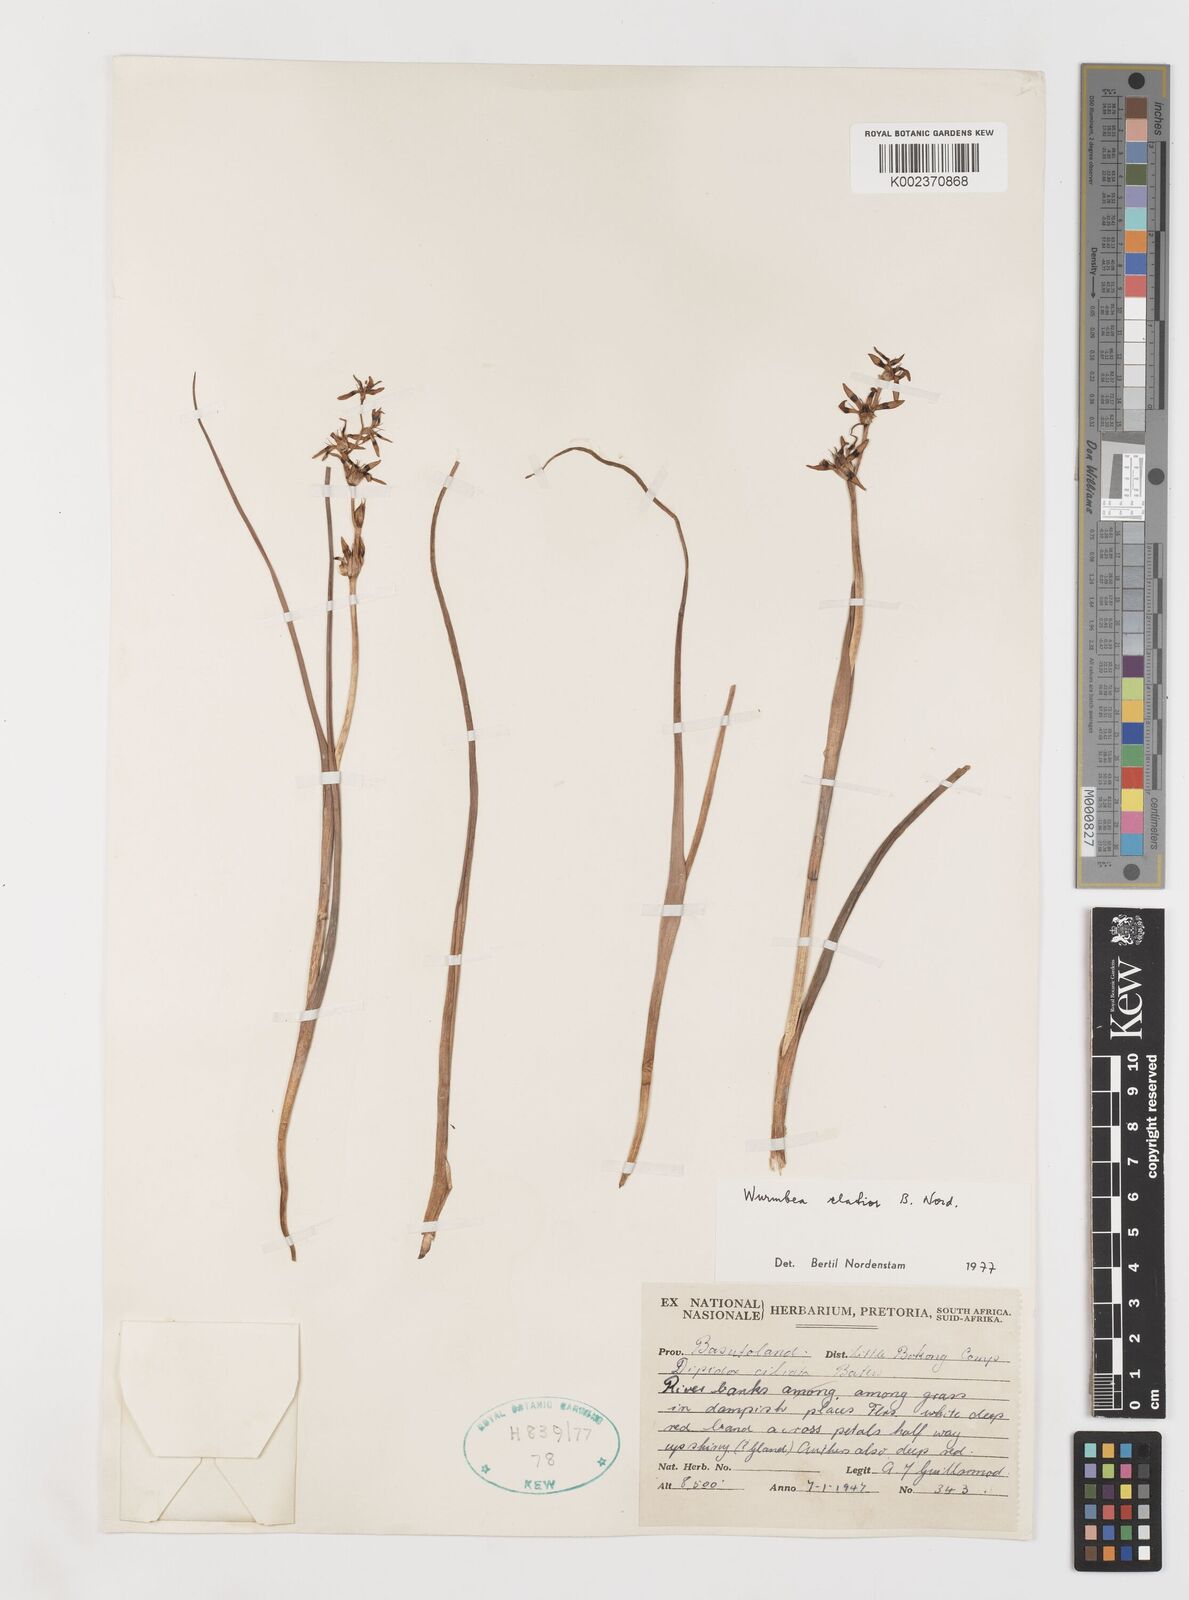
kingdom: Plantae
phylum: Tracheophyta
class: Liliopsida
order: Liliales
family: Colchicaceae
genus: Wurmbea
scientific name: Wurmbea elatior
